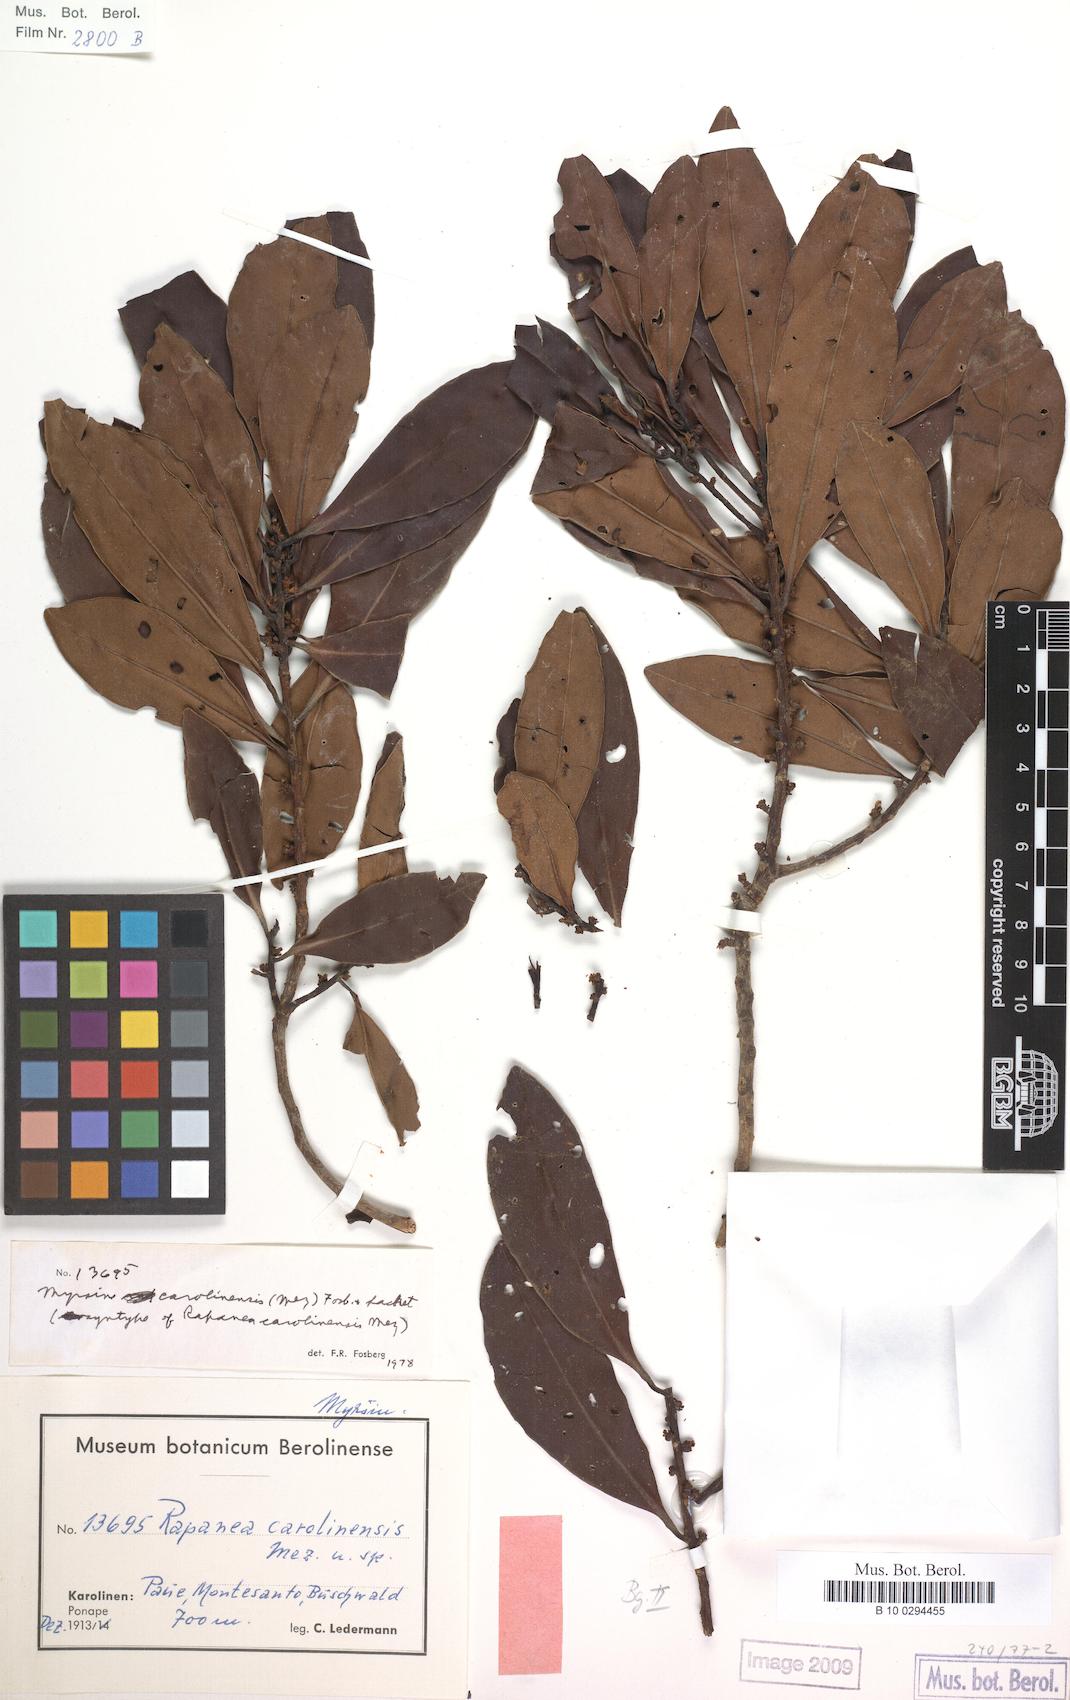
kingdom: Plantae
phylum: Tracheophyta
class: Magnoliopsida
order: Ericales
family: Primulaceae
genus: Myrsine
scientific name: Myrsine carolinensis
